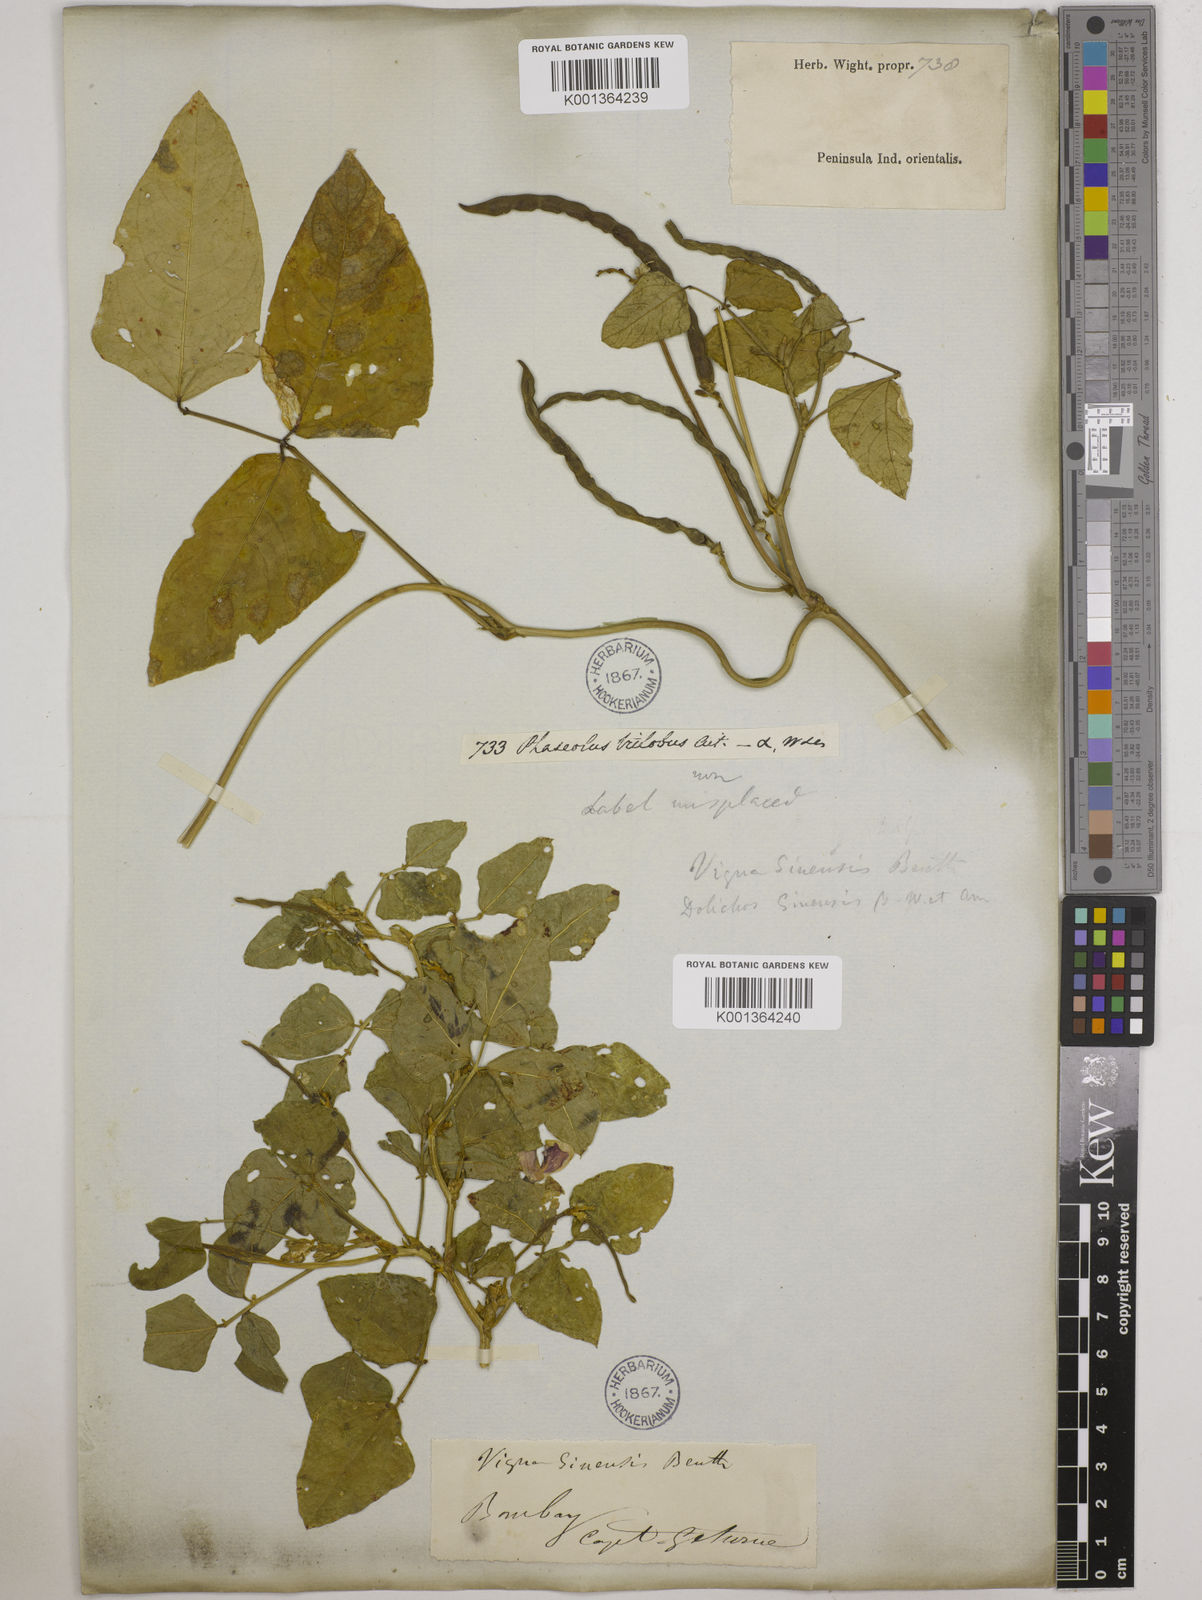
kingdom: Plantae
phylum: Tracheophyta
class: Magnoliopsida
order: Fabales
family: Fabaceae
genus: Vigna
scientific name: Vigna unguiculata
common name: Cowpea
